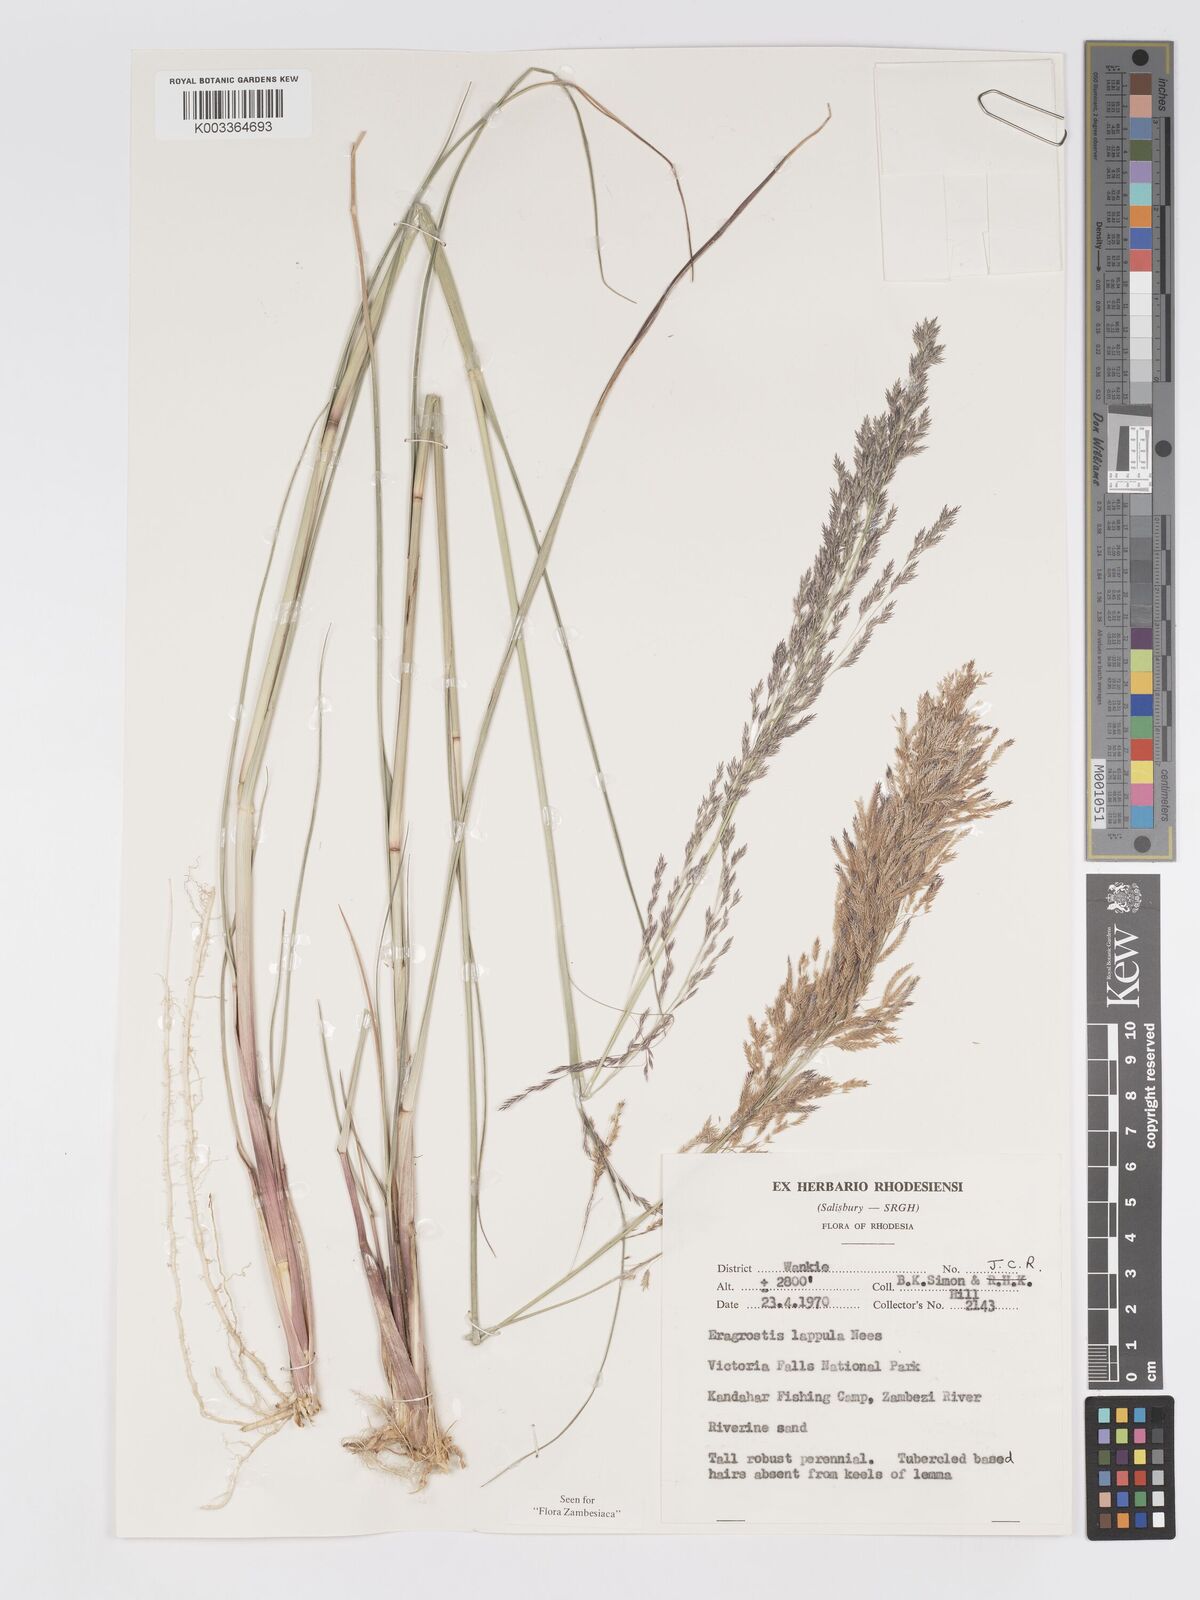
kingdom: Plantae
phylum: Tracheophyta
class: Liliopsida
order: Poales
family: Poaceae
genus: Eragrostis
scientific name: Eragrostis lappula
